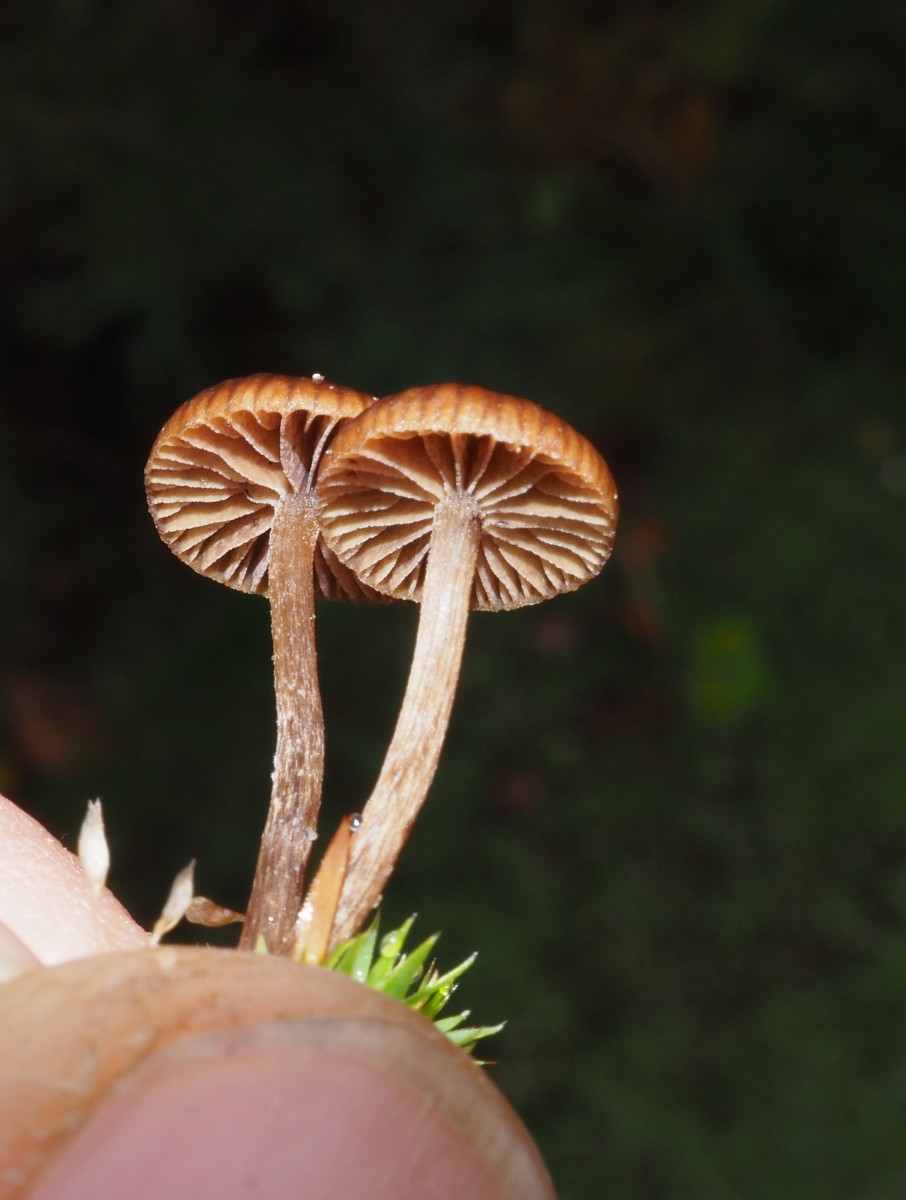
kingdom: Fungi
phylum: Basidiomycota
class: Agaricomycetes
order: Agaricales
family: Strophariaceae
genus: Deconica
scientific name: Deconica montana
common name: rødbrun stråhat
